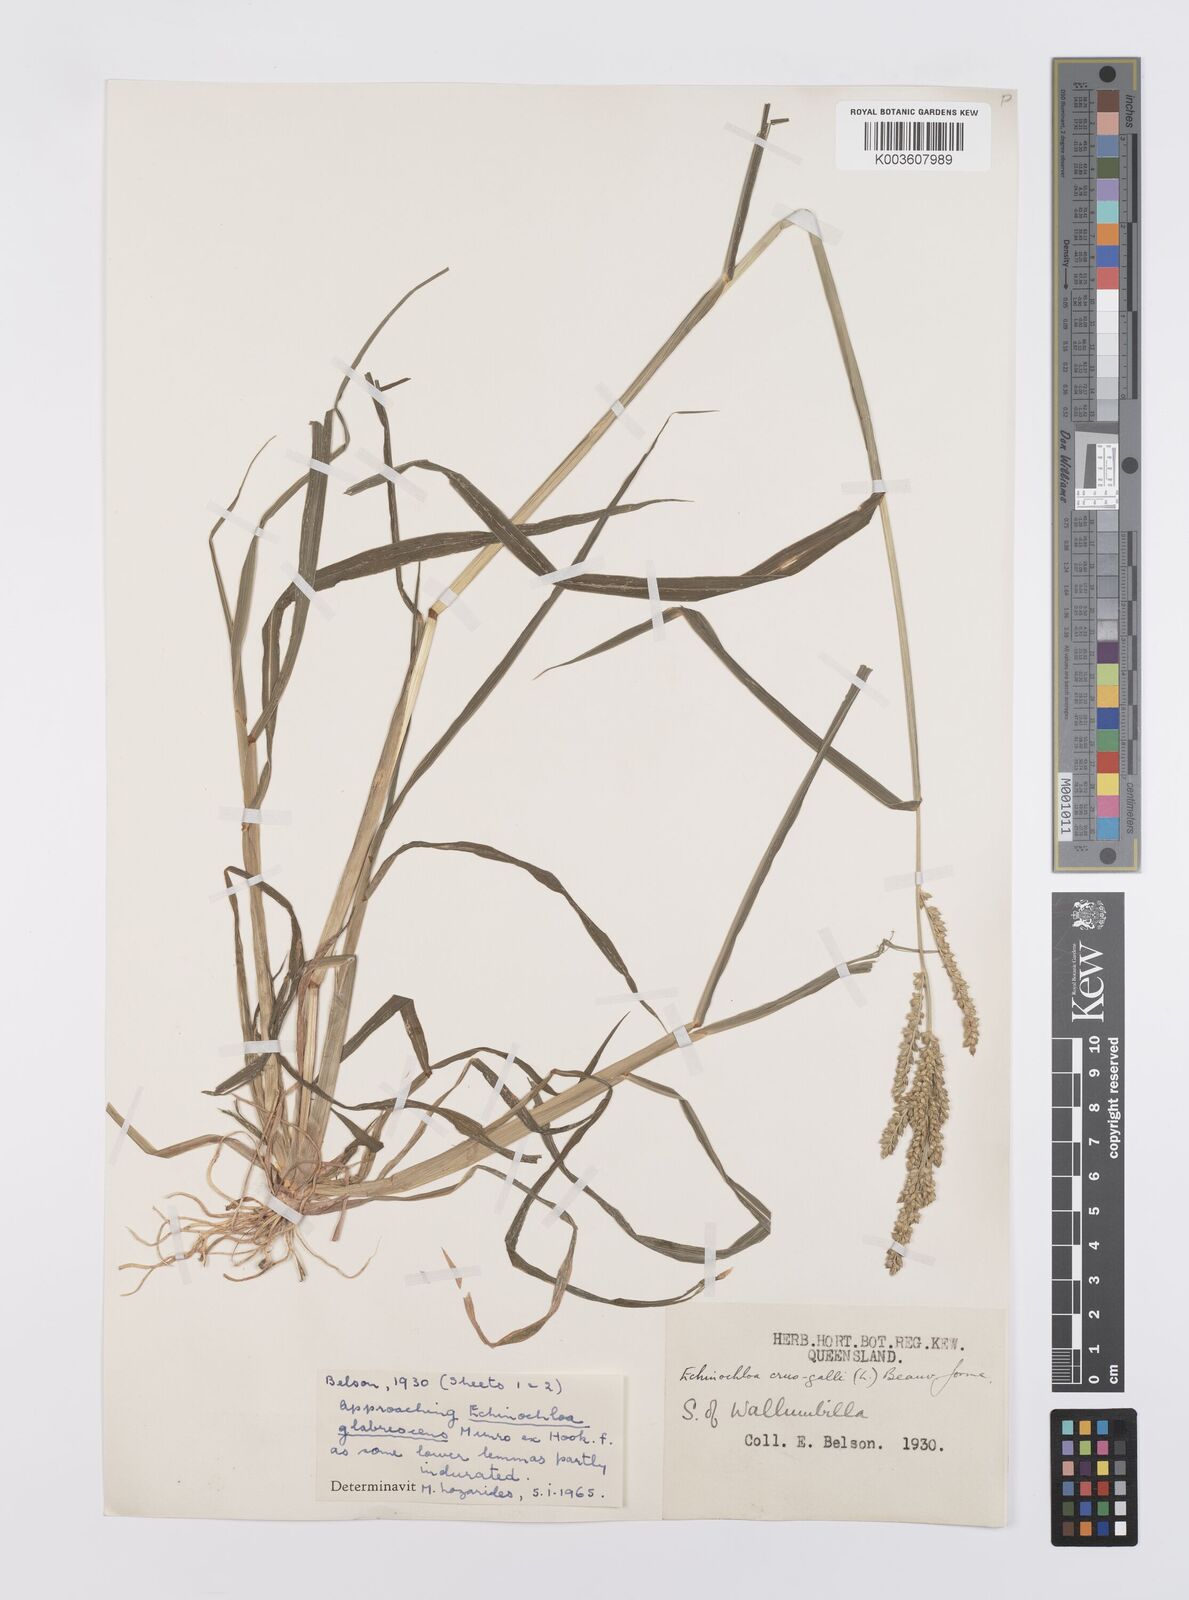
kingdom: Plantae
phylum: Tracheophyta
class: Liliopsida
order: Poales
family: Poaceae
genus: Echinochloa
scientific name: Echinochloa crus-galli
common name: Cockspur
